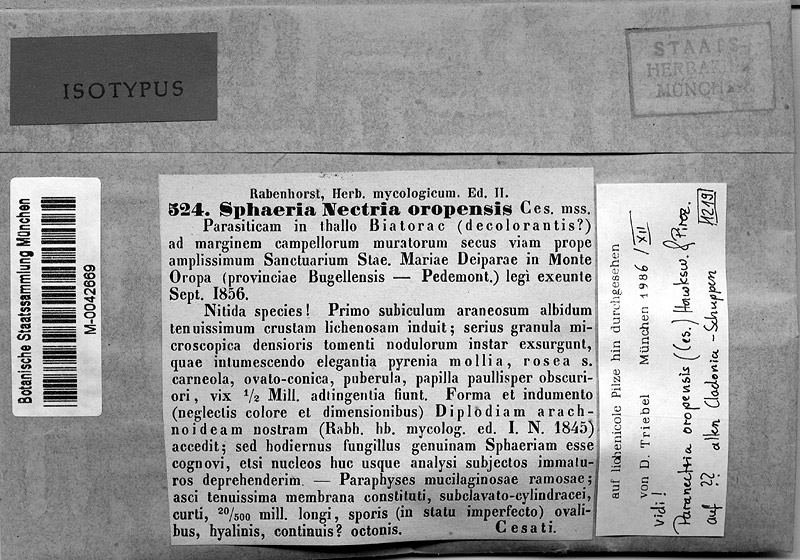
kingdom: Fungi
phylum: Ascomycota
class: Sordariomycetes
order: Hypocreales
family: Bionectriaceae
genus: Paranectria
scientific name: Paranectria oropensis
